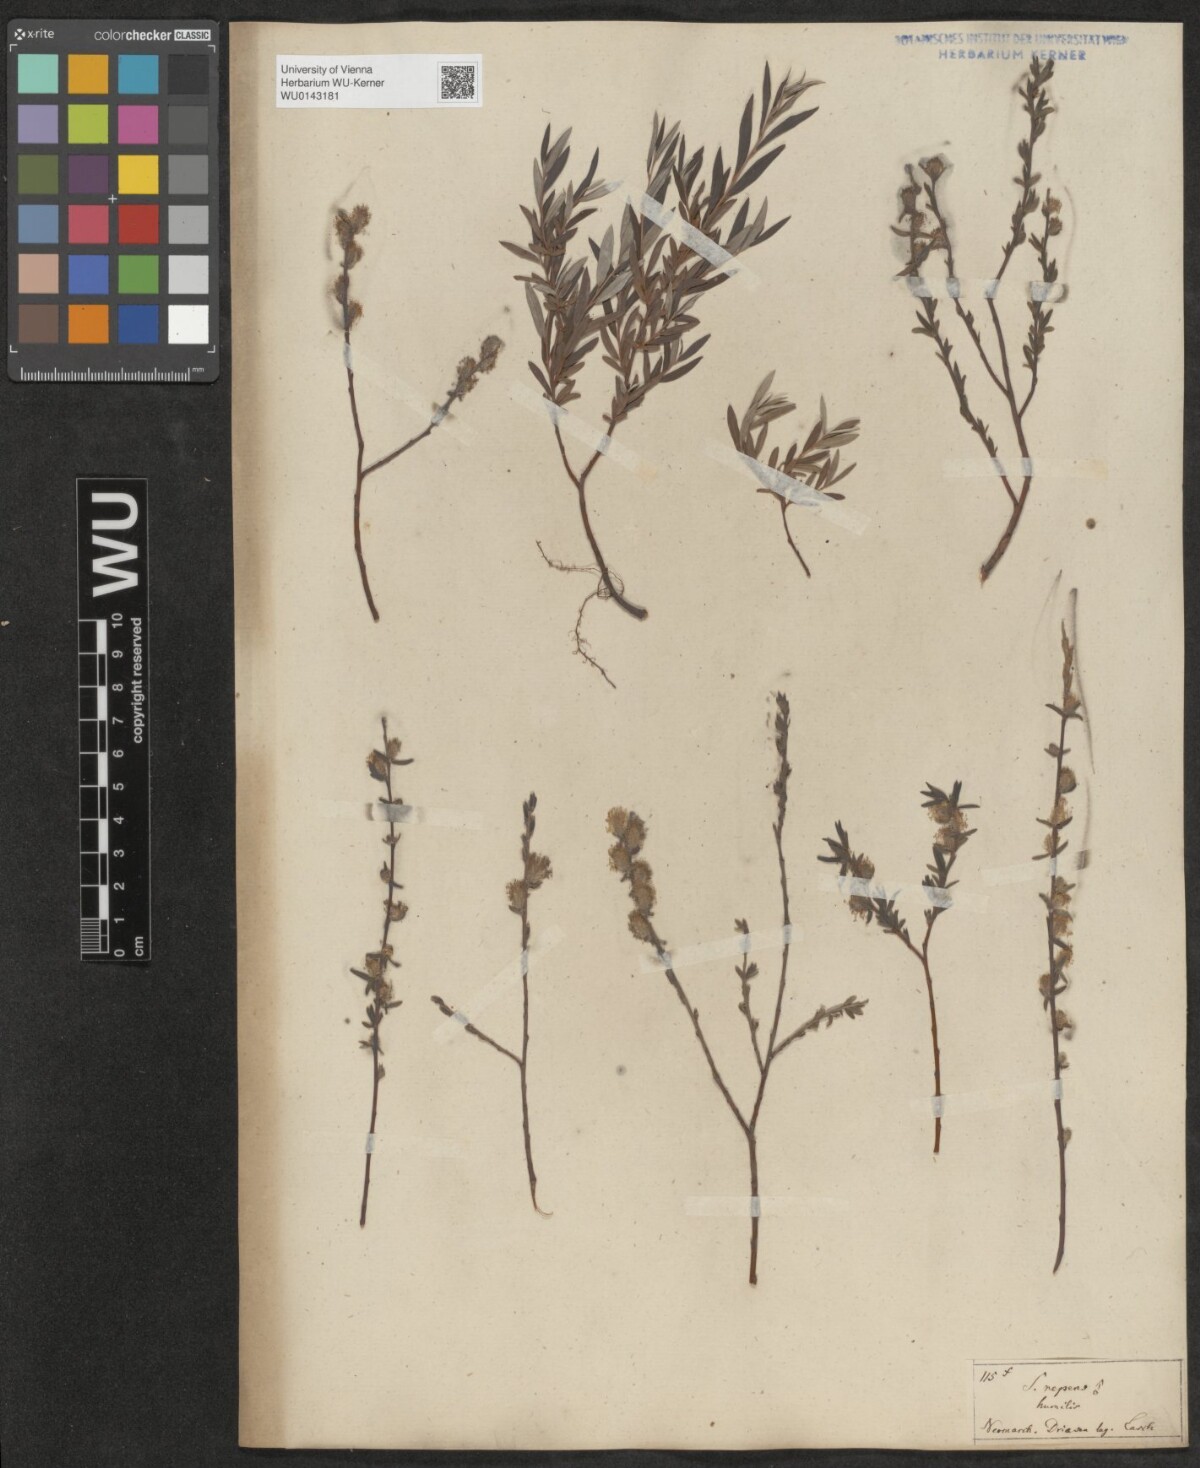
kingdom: Plantae
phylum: Tracheophyta
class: Magnoliopsida
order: Malpighiales
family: Salicaceae
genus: Salix
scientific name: Salix repens
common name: Creeping willow
